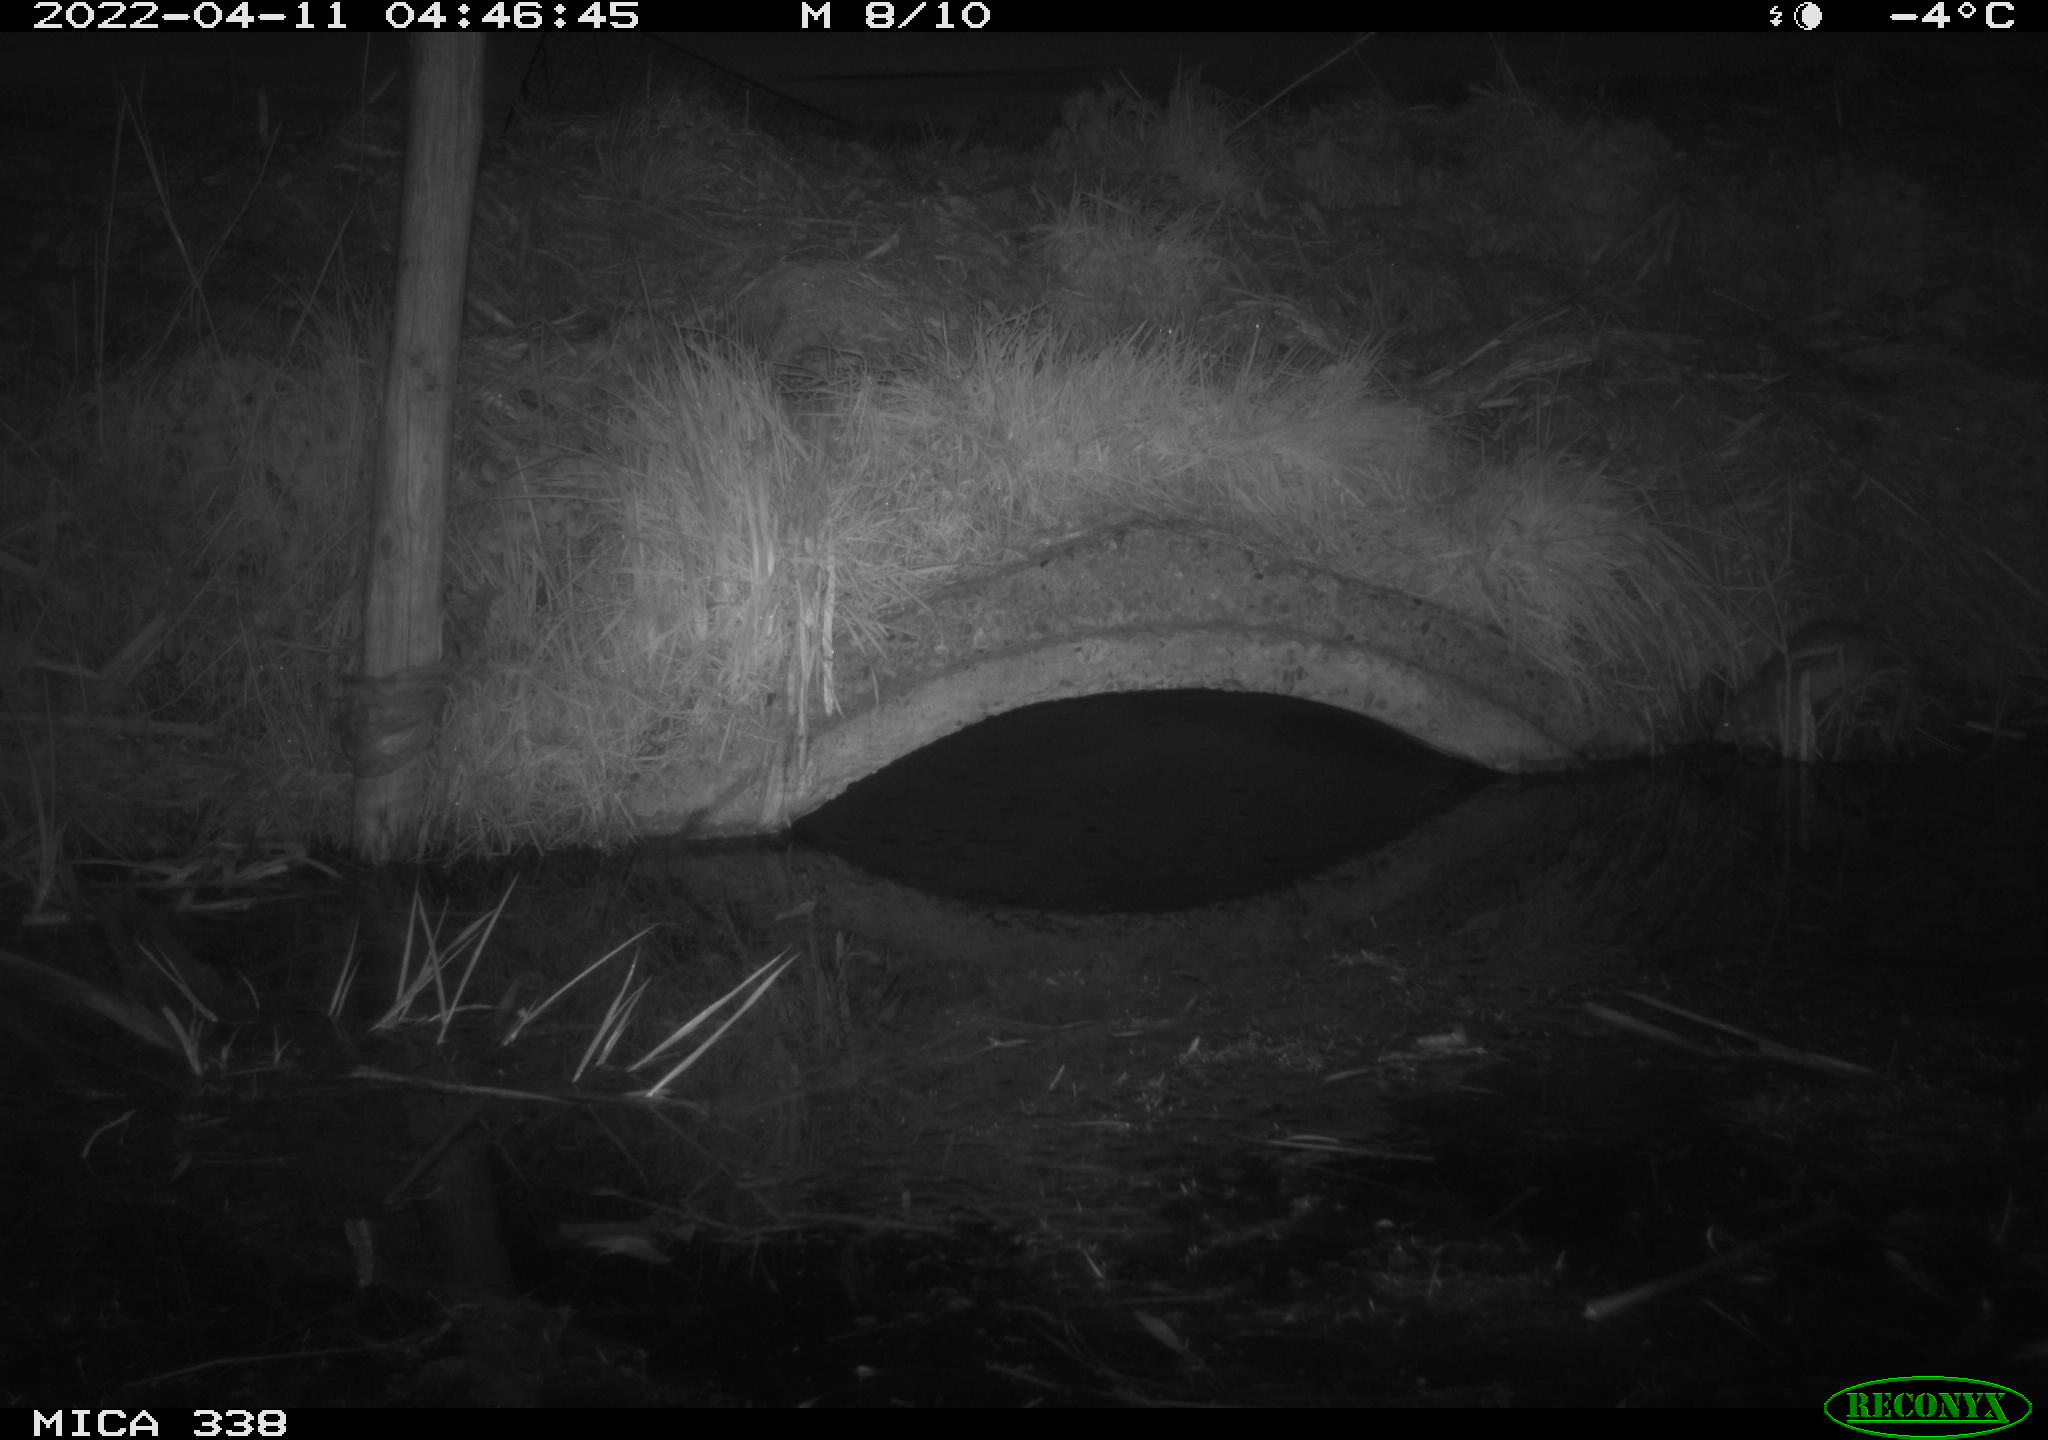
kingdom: Animalia
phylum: Chordata
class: Mammalia
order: Rodentia
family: Muridae
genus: Rattus
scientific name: Rattus norvegicus
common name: Brown rat
